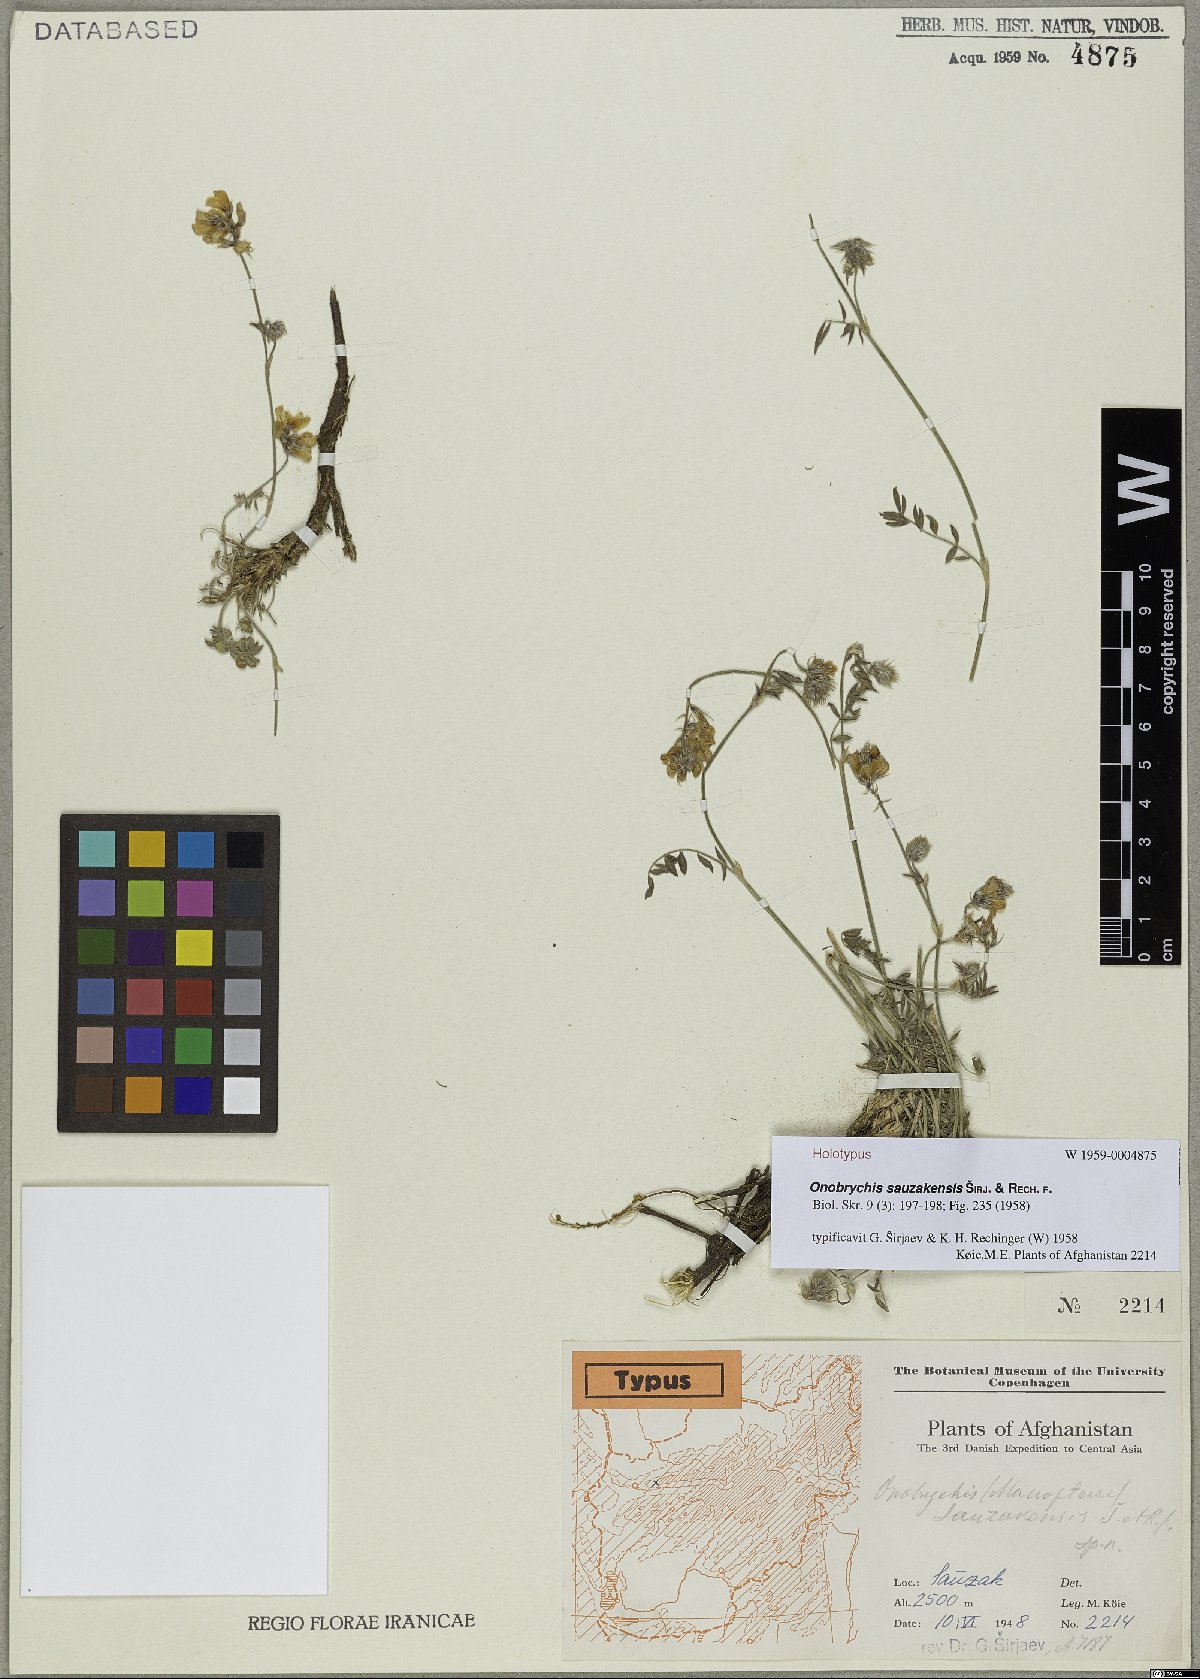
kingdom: Plantae
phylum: Tracheophyta
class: Magnoliopsida
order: Fabales
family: Fabaceae
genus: Onobrychis
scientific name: Onobrychis sauzakensis
